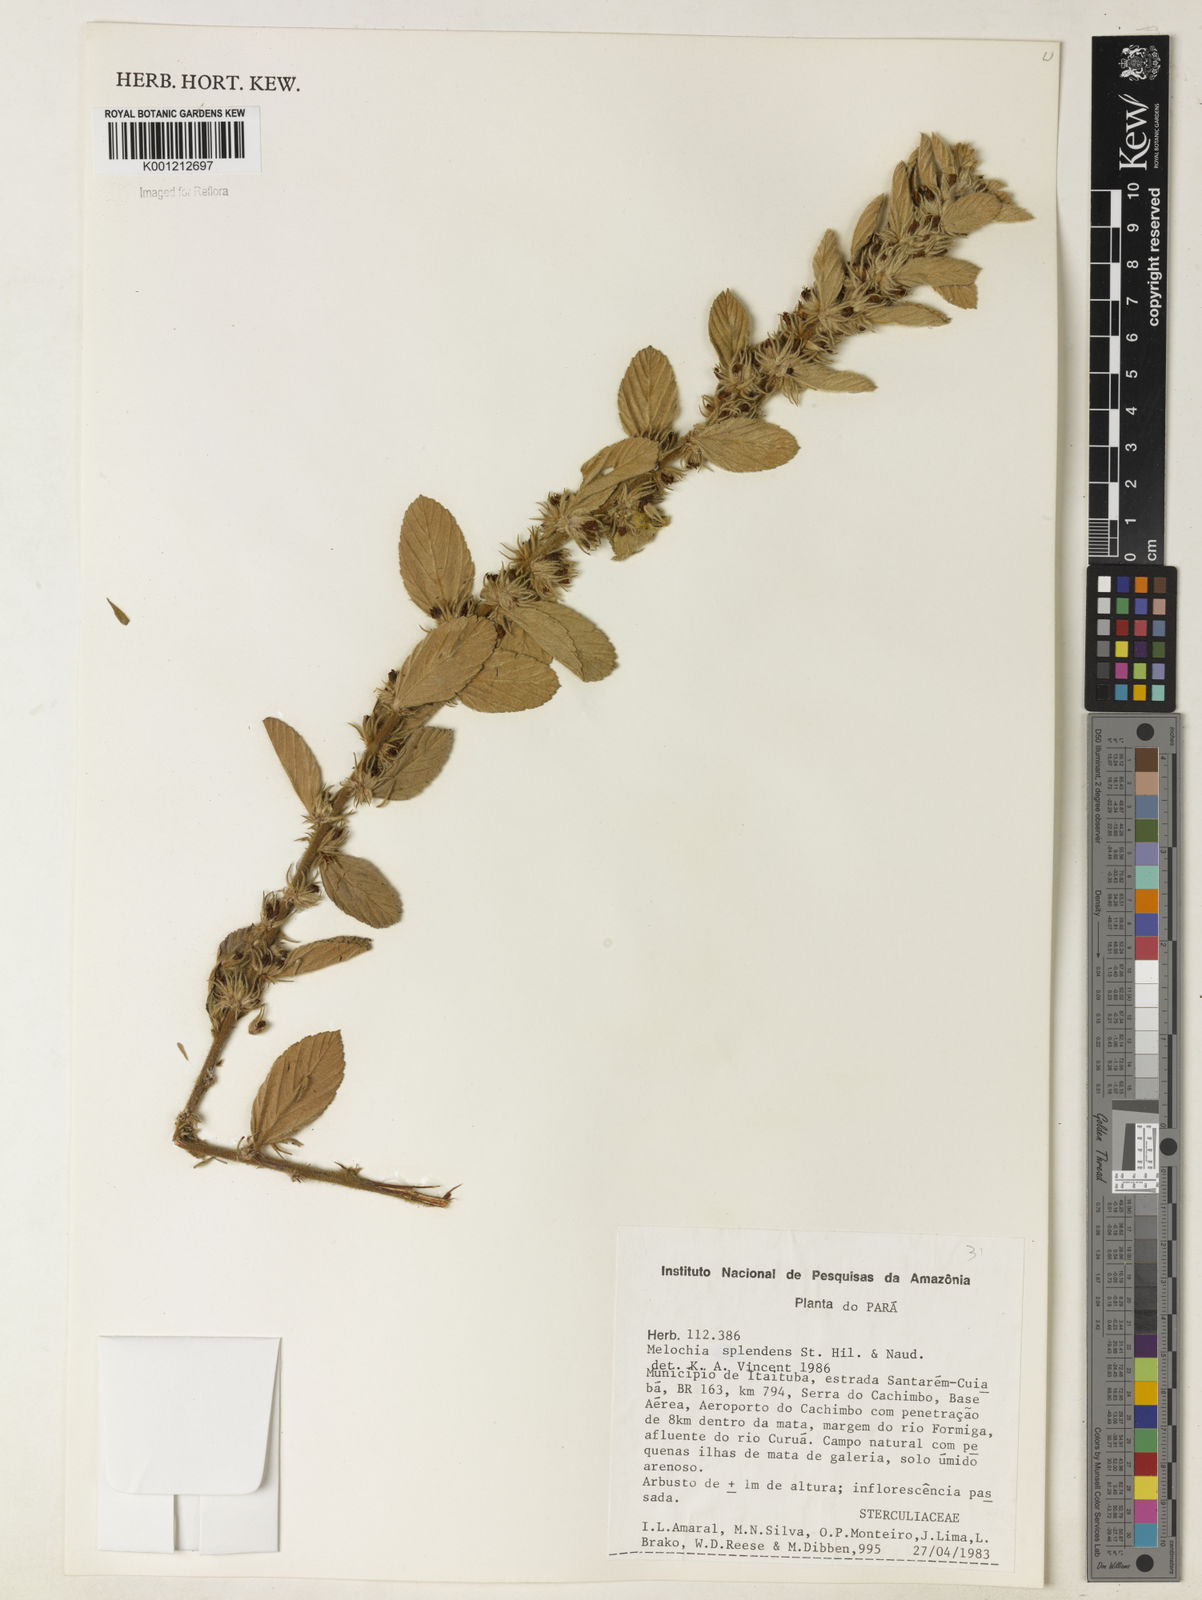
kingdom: Plantae
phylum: Tracheophyta
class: Magnoliopsida
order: Malvales
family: Malvaceae
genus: Melochia
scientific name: Melochia splendens
